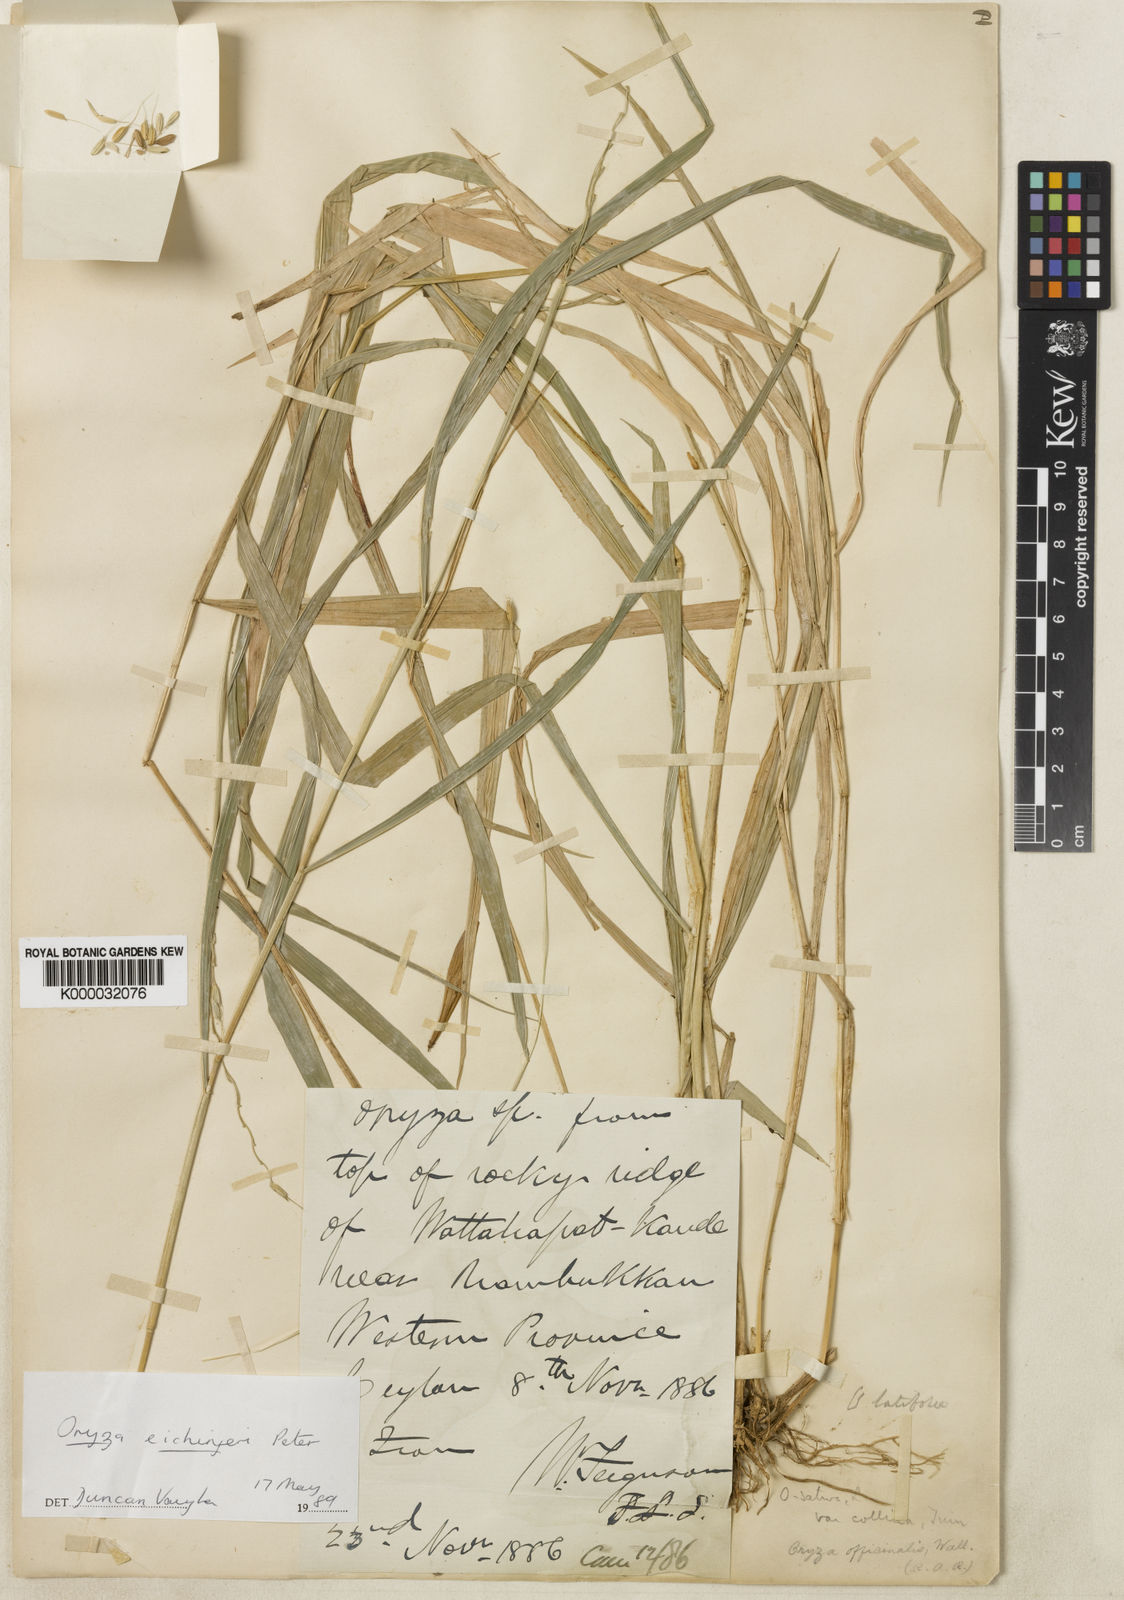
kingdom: Plantae
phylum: Tracheophyta
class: Liliopsida
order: Poales
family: Poaceae
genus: Oryza
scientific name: Oryza eichingeri
